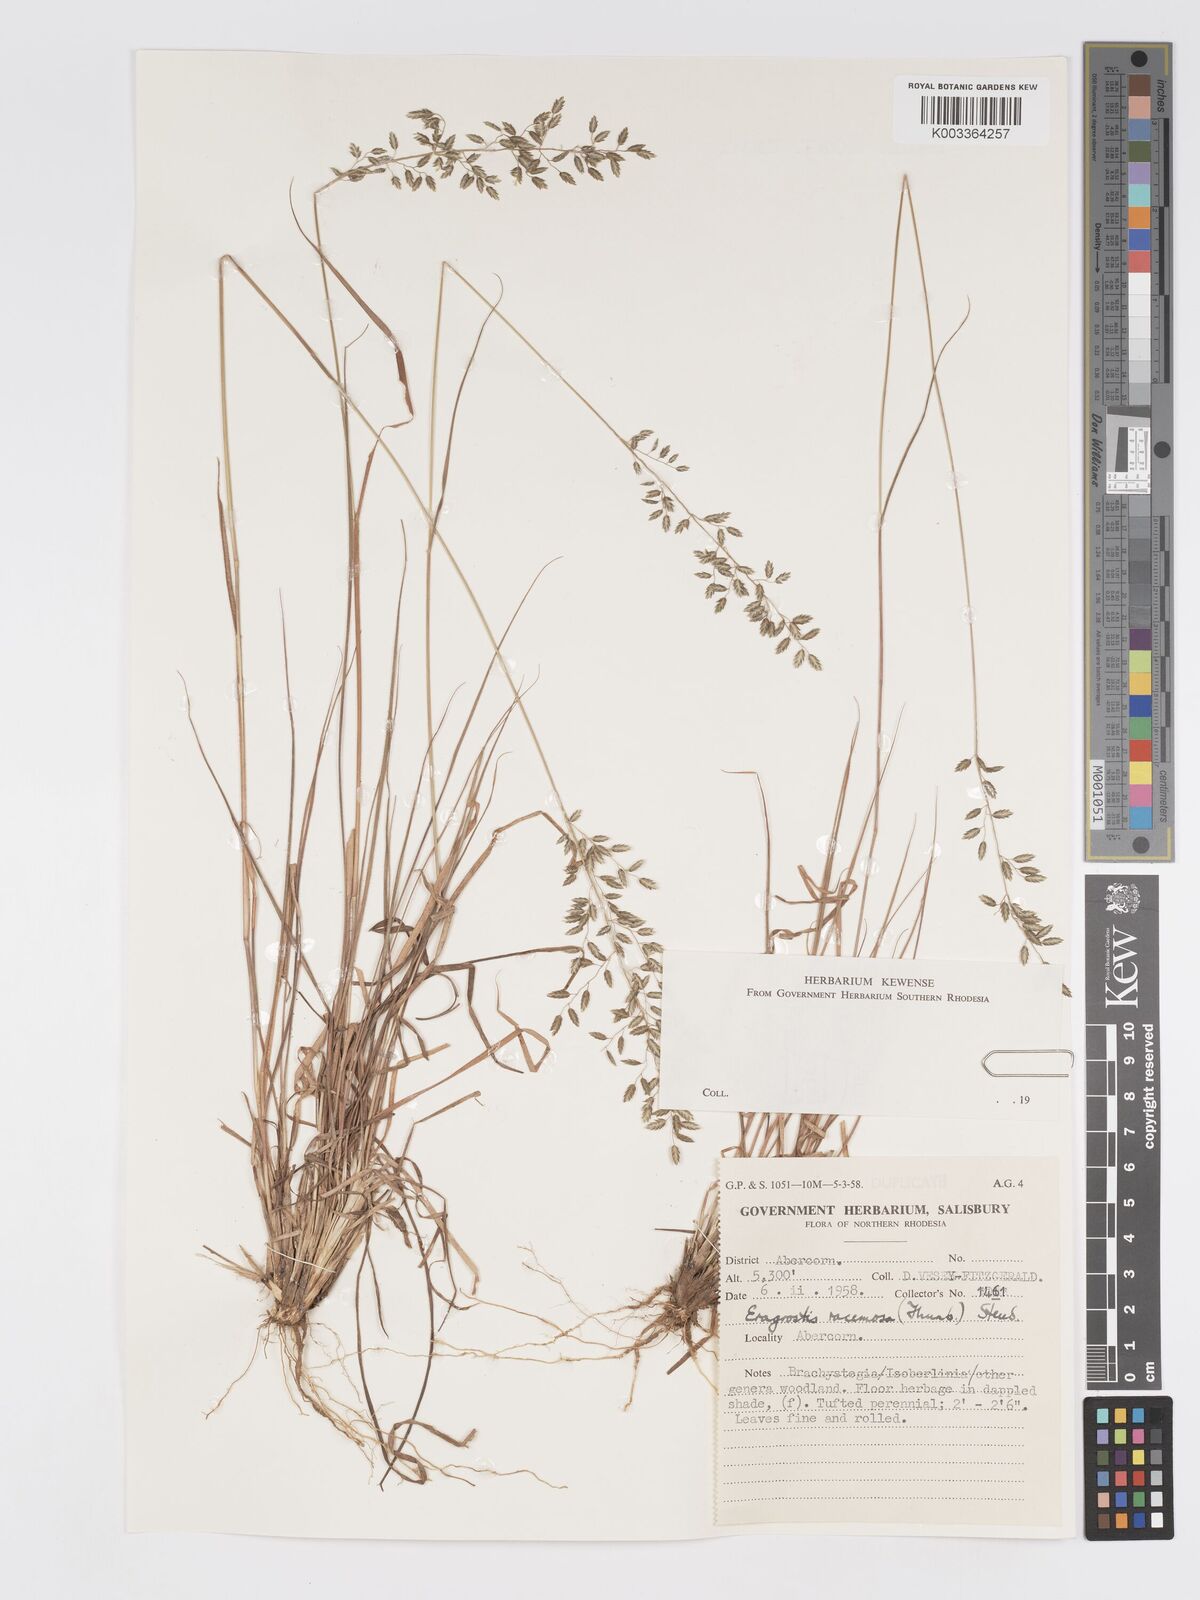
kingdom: Plantae
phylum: Tracheophyta
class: Liliopsida
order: Poales
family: Poaceae
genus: Eragrostis
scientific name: Eragrostis racemosa
